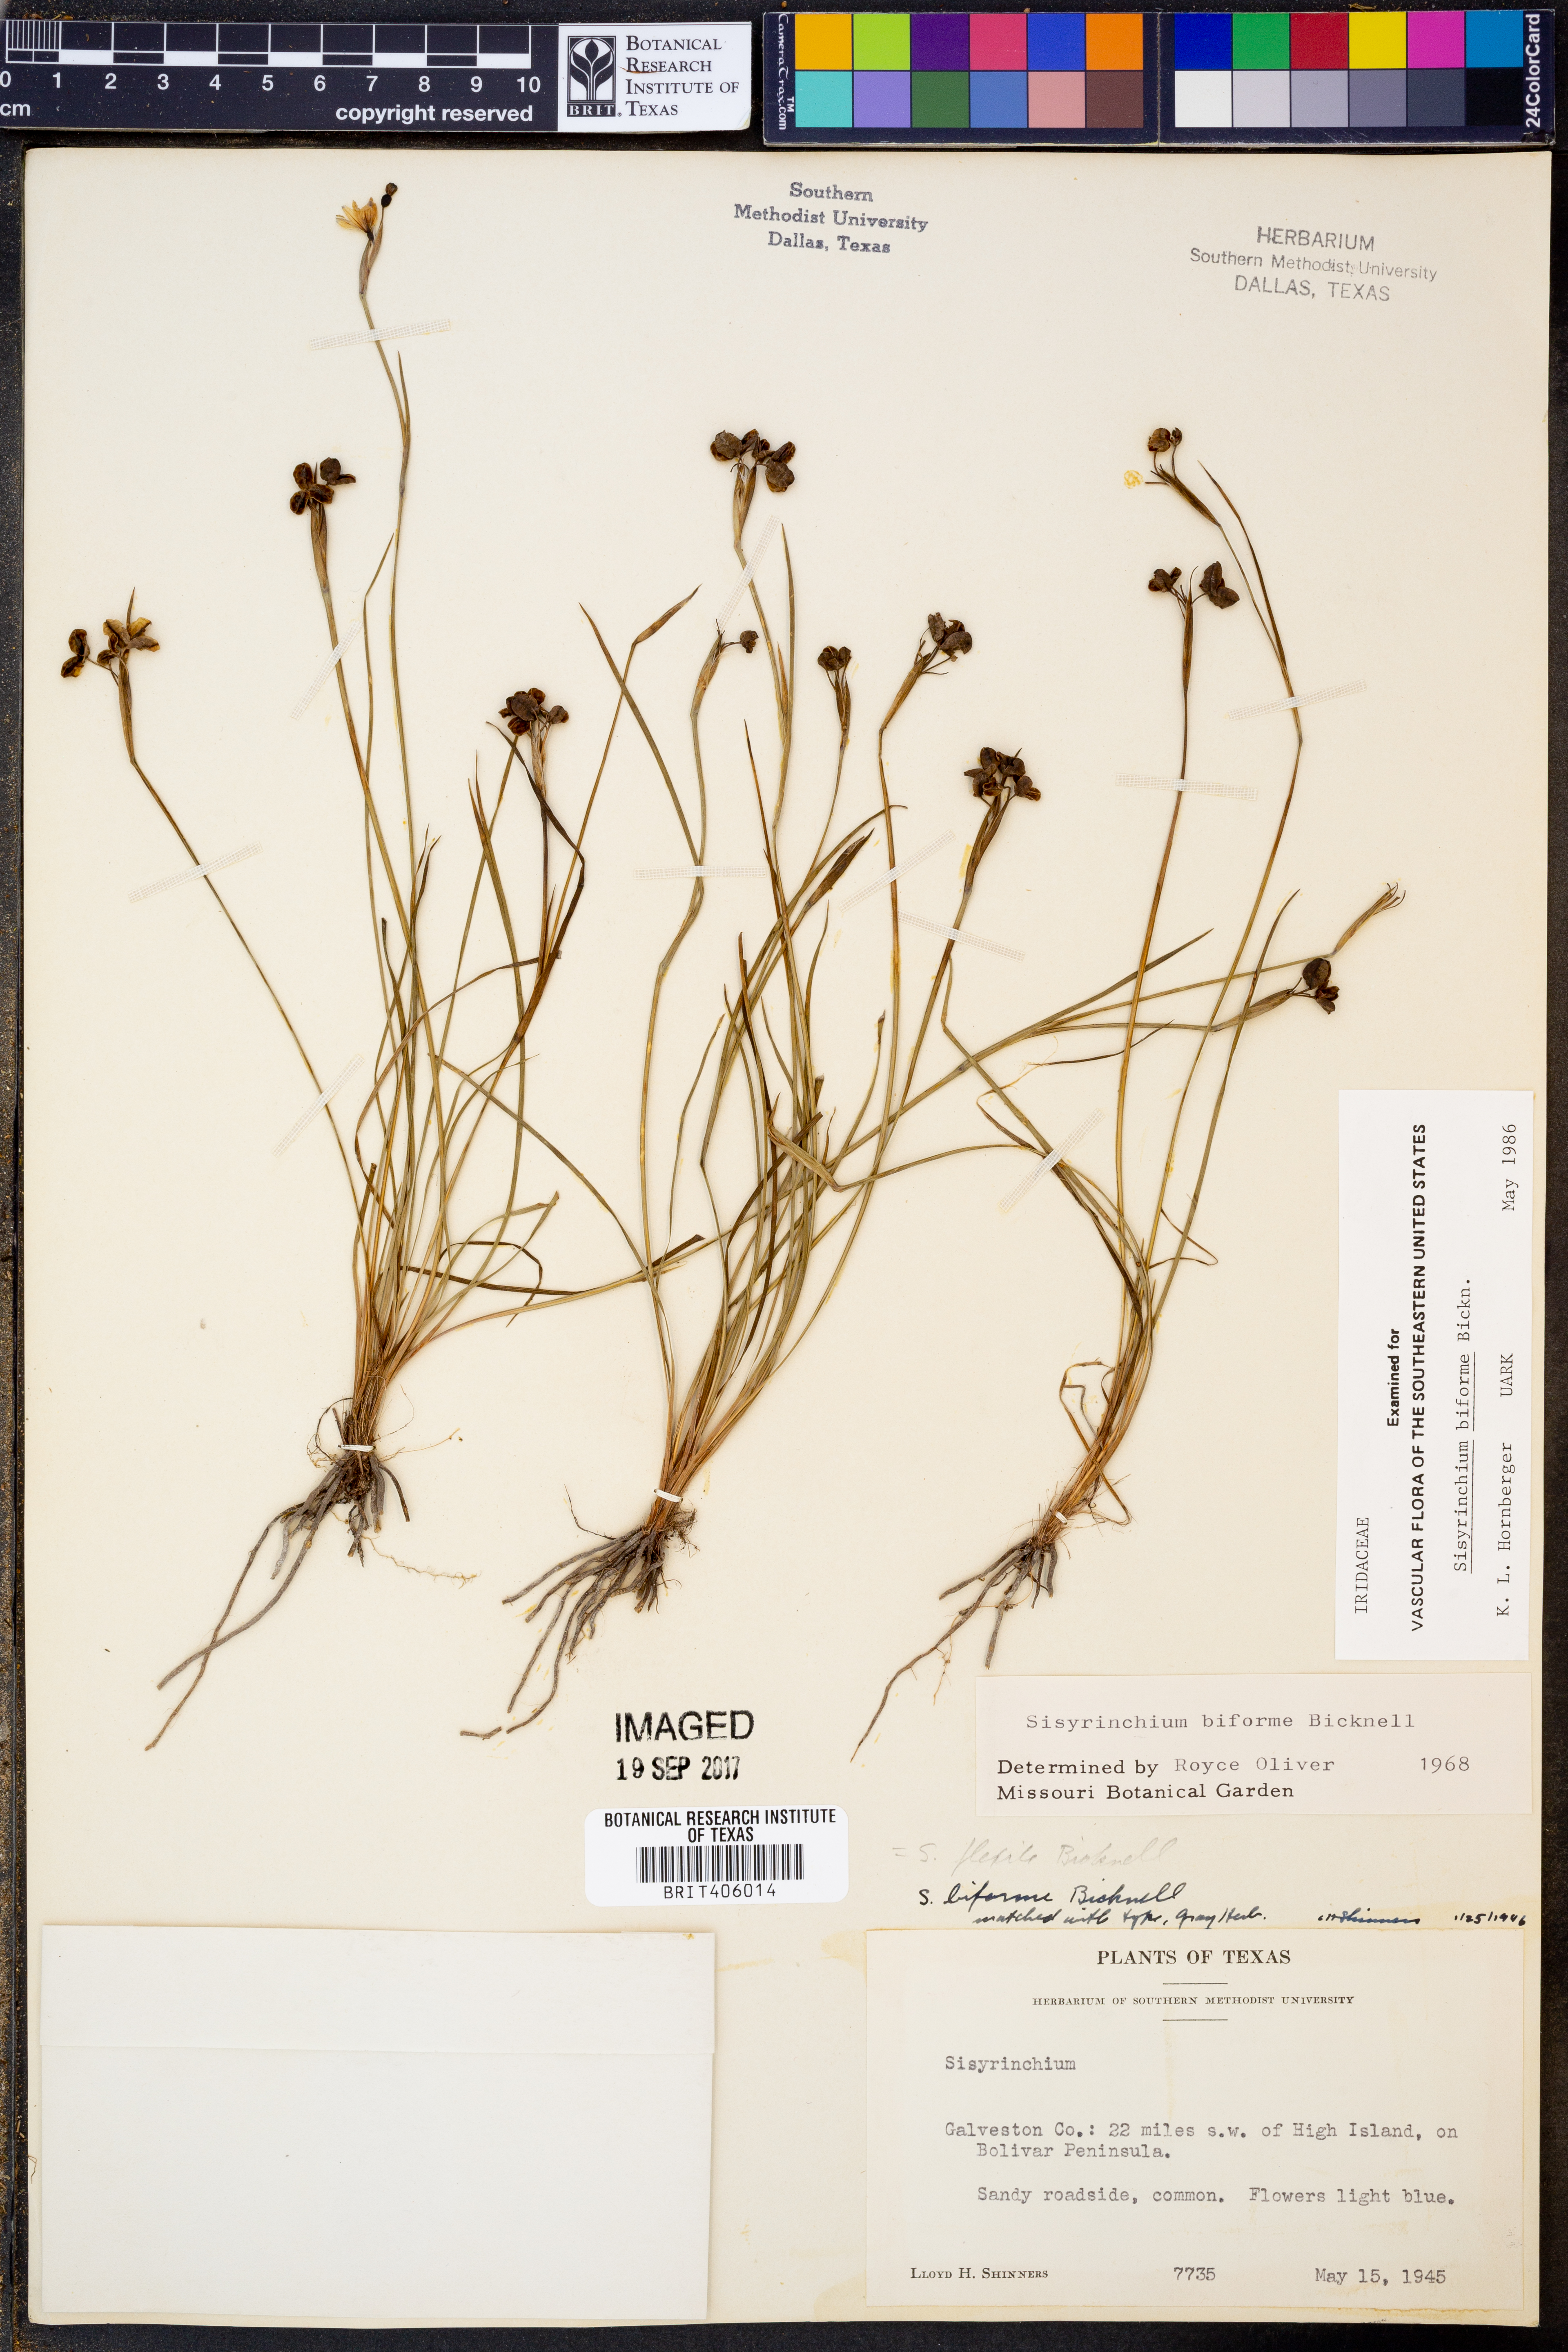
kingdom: Plantae
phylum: Tracheophyta
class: Liliopsida
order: Asparagales
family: Iridaceae
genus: Sisyrinchium
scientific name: Sisyrinchium biforme
